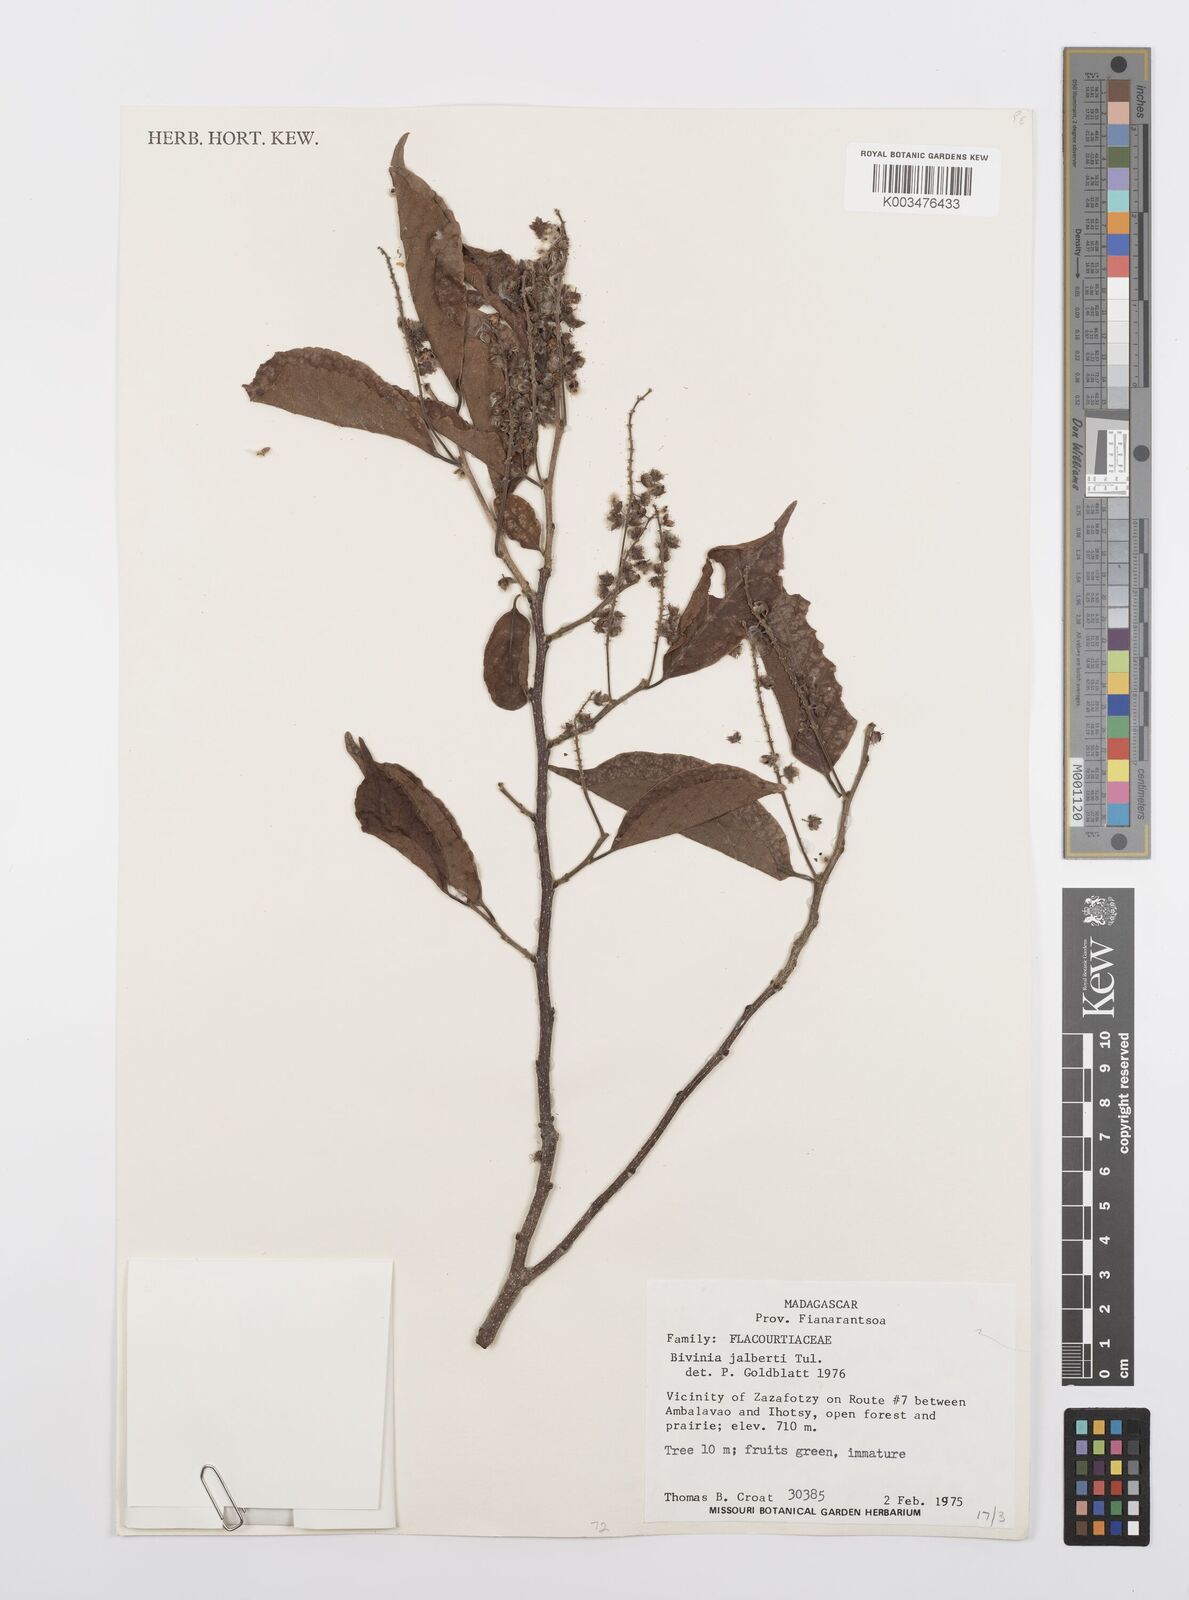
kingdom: Plantae
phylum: Tracheophyta
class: Magnoliopsida
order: Malpighiales
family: Salicaceae
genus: Bivinia
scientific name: Bivinia jalbertii
